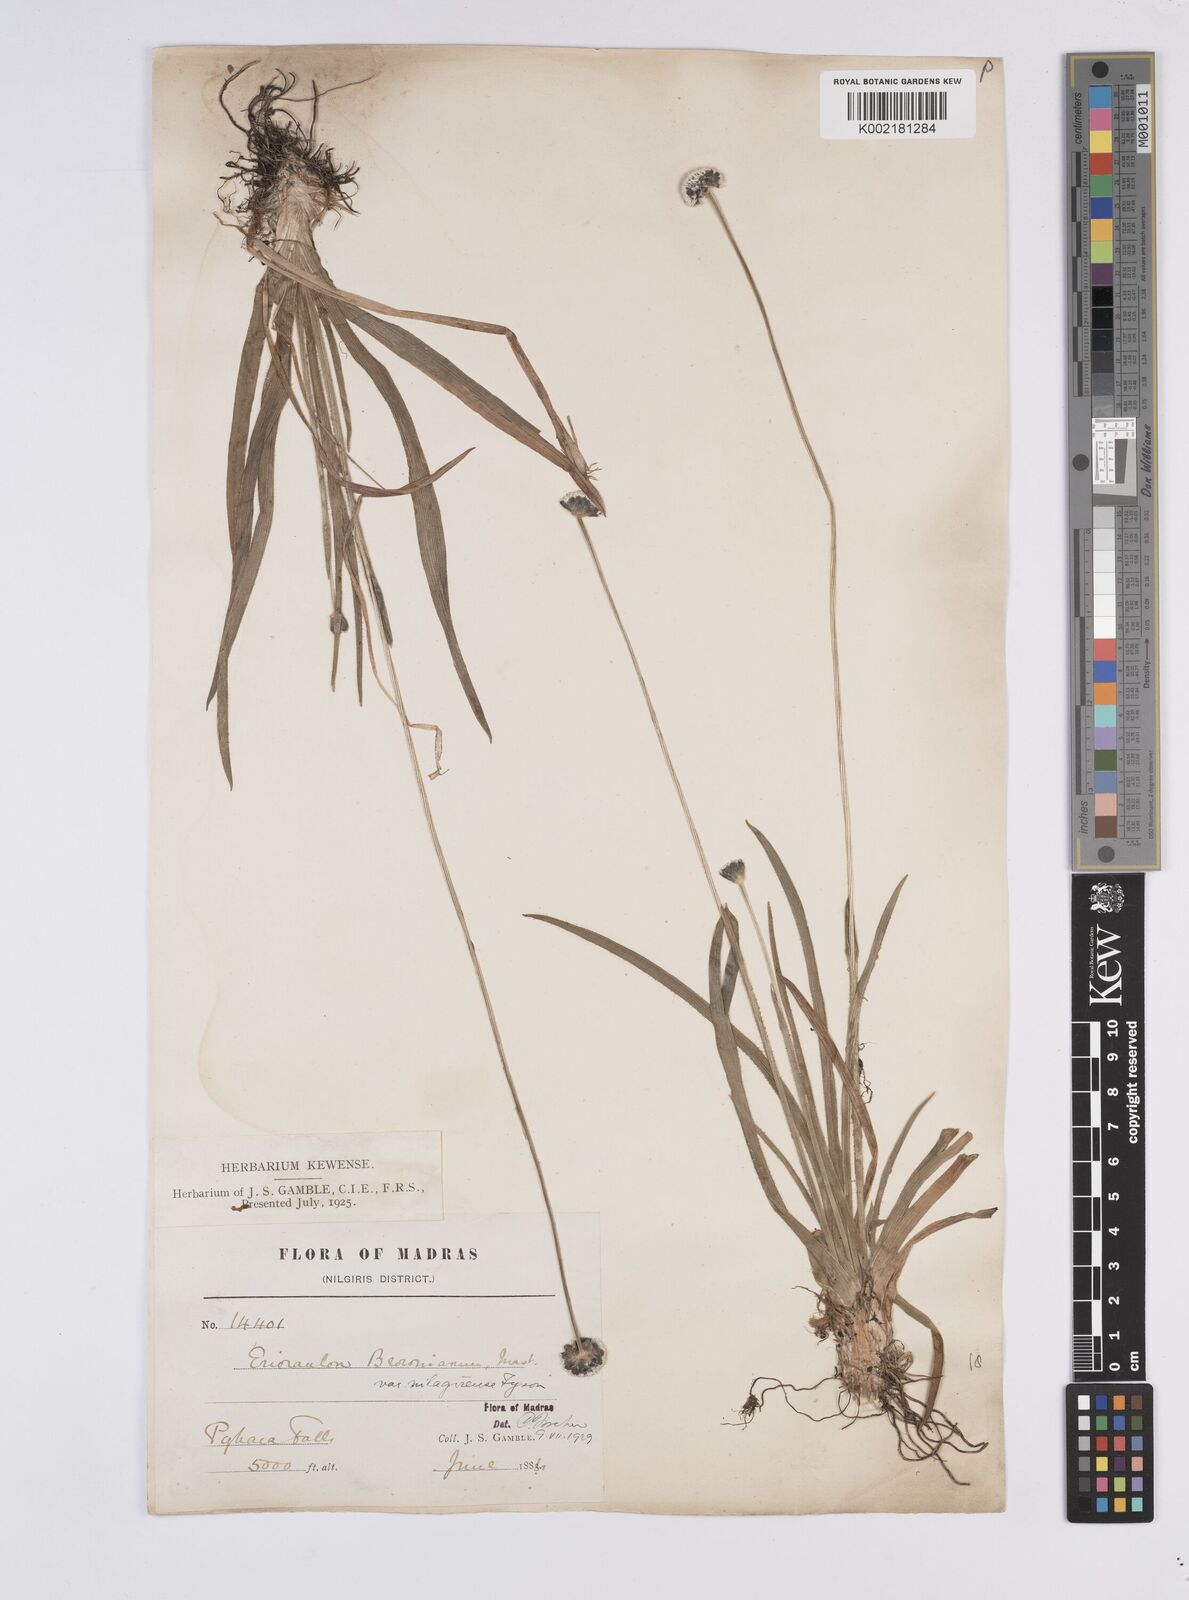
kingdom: Plantae
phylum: Tracheophyta
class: Liliopsida
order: Poales
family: Eriocaulaceae
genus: Eriocaulon
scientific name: Eriocaulon brownianum
